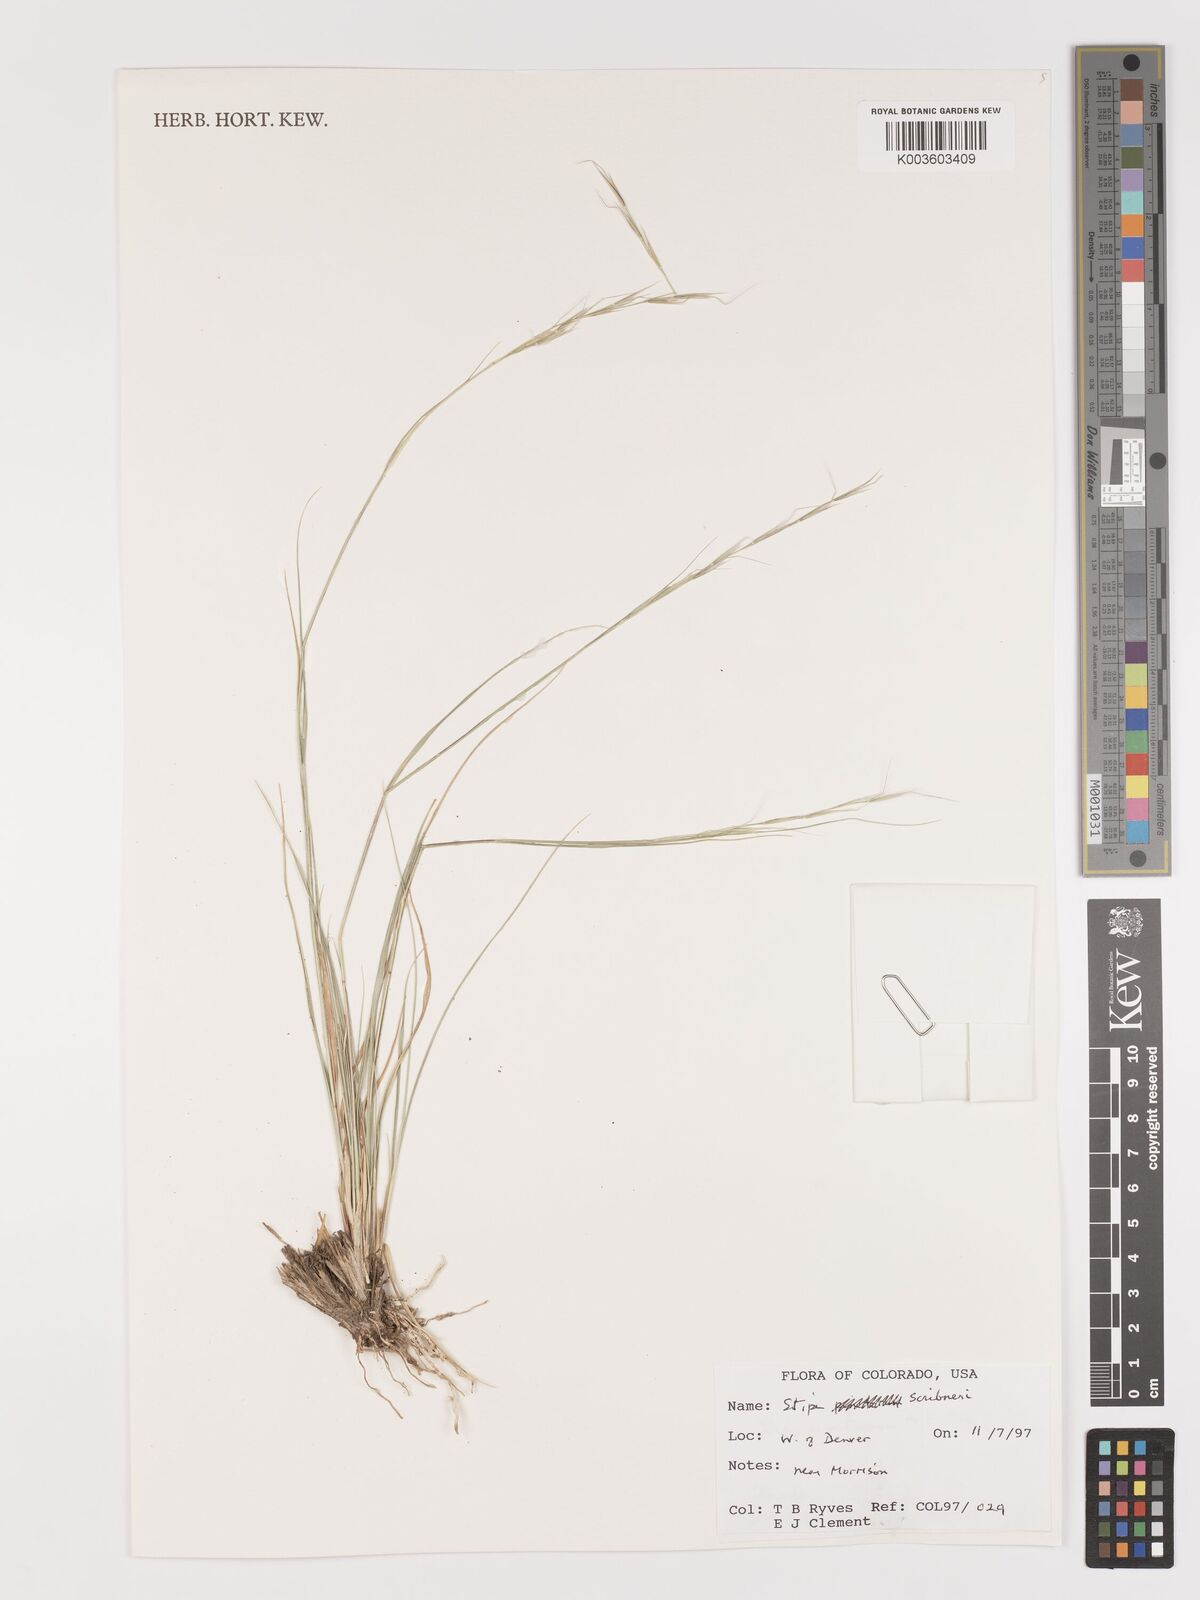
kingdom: Plantae
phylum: Tracheophyta
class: Liliopsida
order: Poales
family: Poaceae
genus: Eriocoma
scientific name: Eriocoma scribneri
